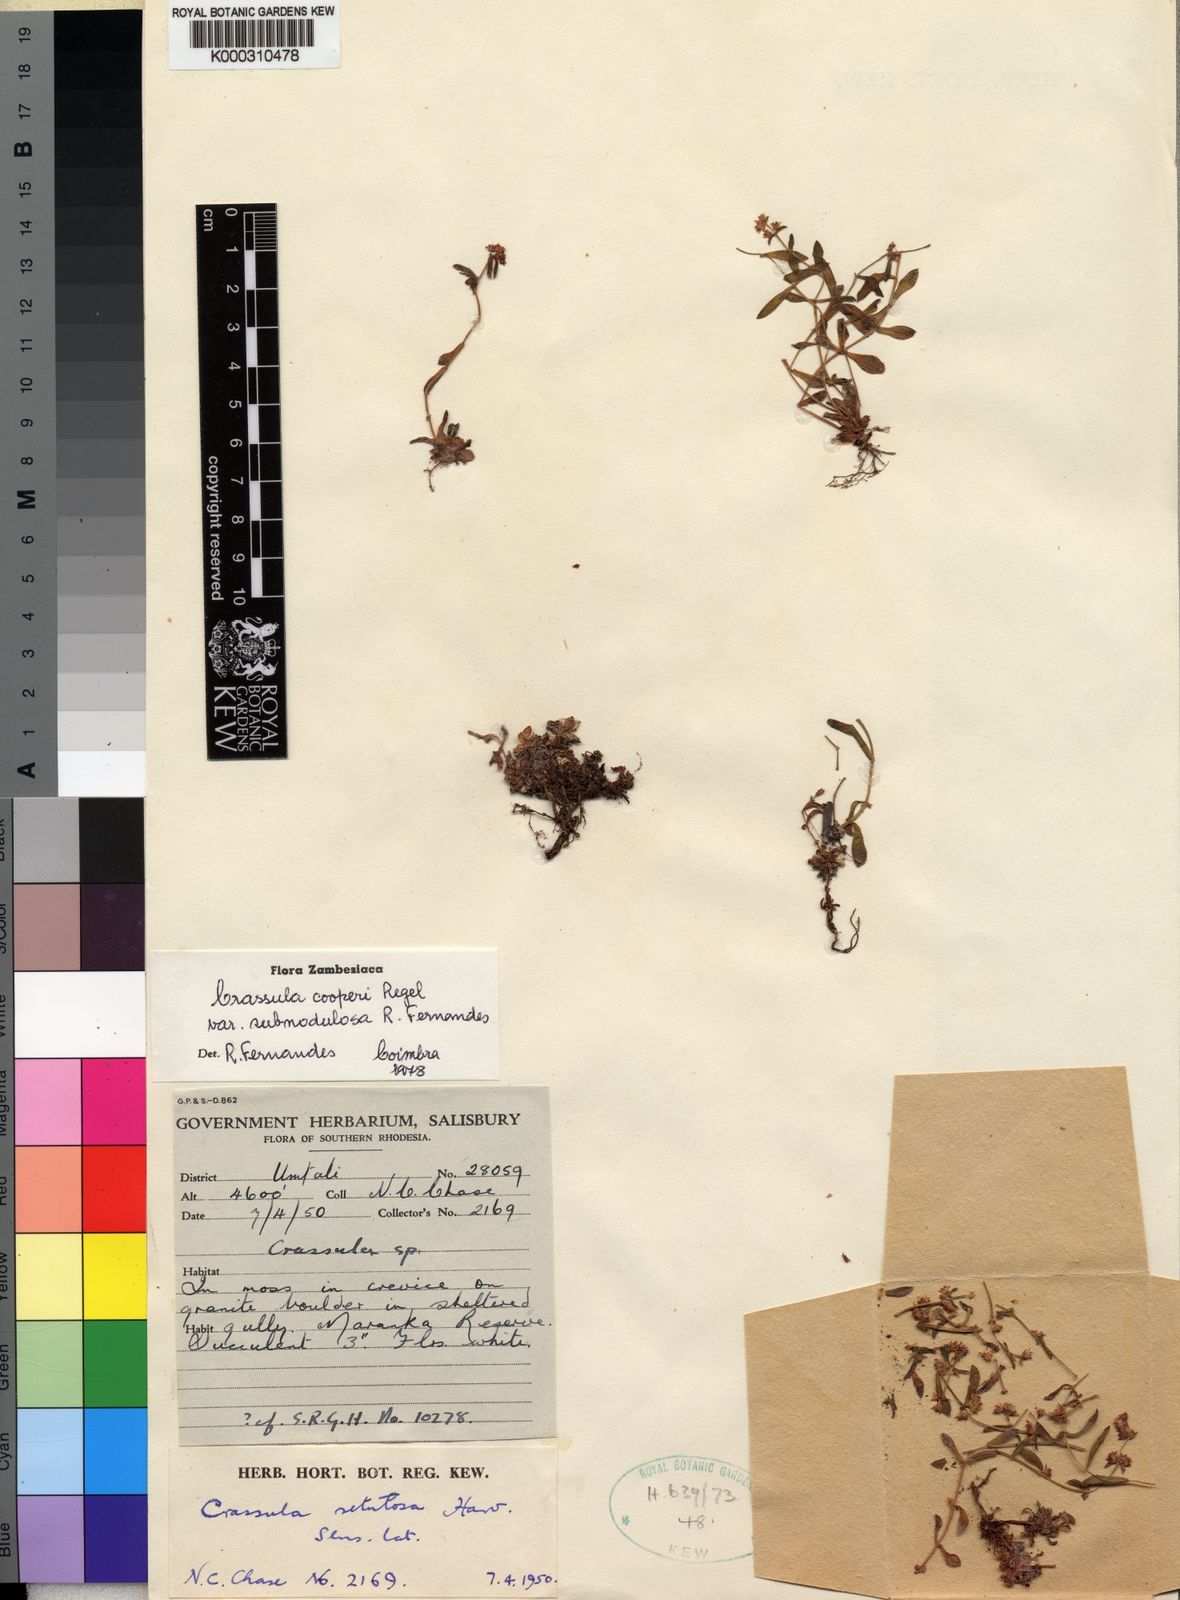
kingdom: Plantae
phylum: Tracheophyta
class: Magnoliopsida
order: Saxifragales
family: Crassulaceae
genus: Crassula
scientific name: Crassula cooperi
